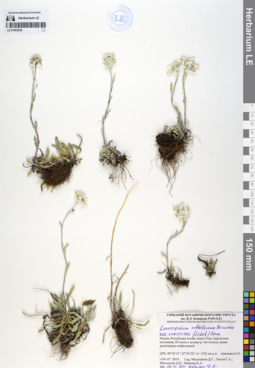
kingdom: Plantae
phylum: Tracheophyta
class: Magnoliopsida
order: Asterales
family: Asteraceae
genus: Leontopodium
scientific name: Leontopodium campestre
